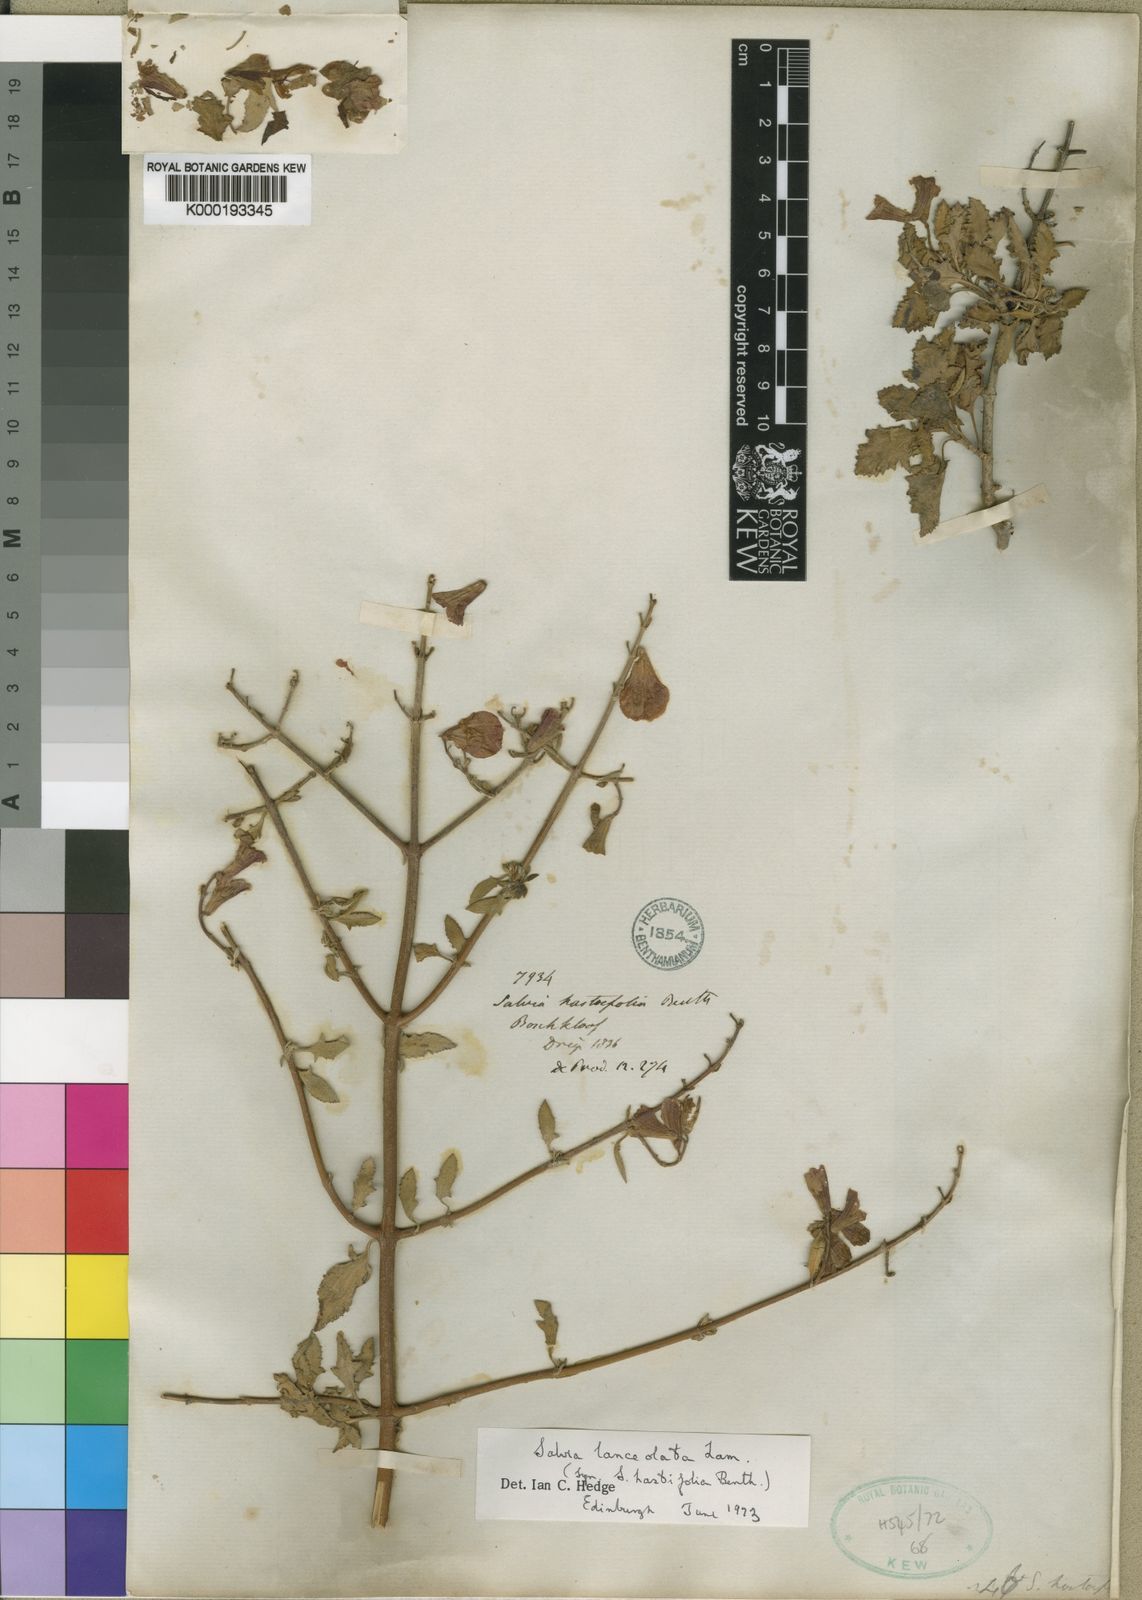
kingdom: Plantae
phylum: Tracheophyta
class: Magnoliopsida
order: Lamiales
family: Lamiaceae
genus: Salvia
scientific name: Salvia lanceolata
